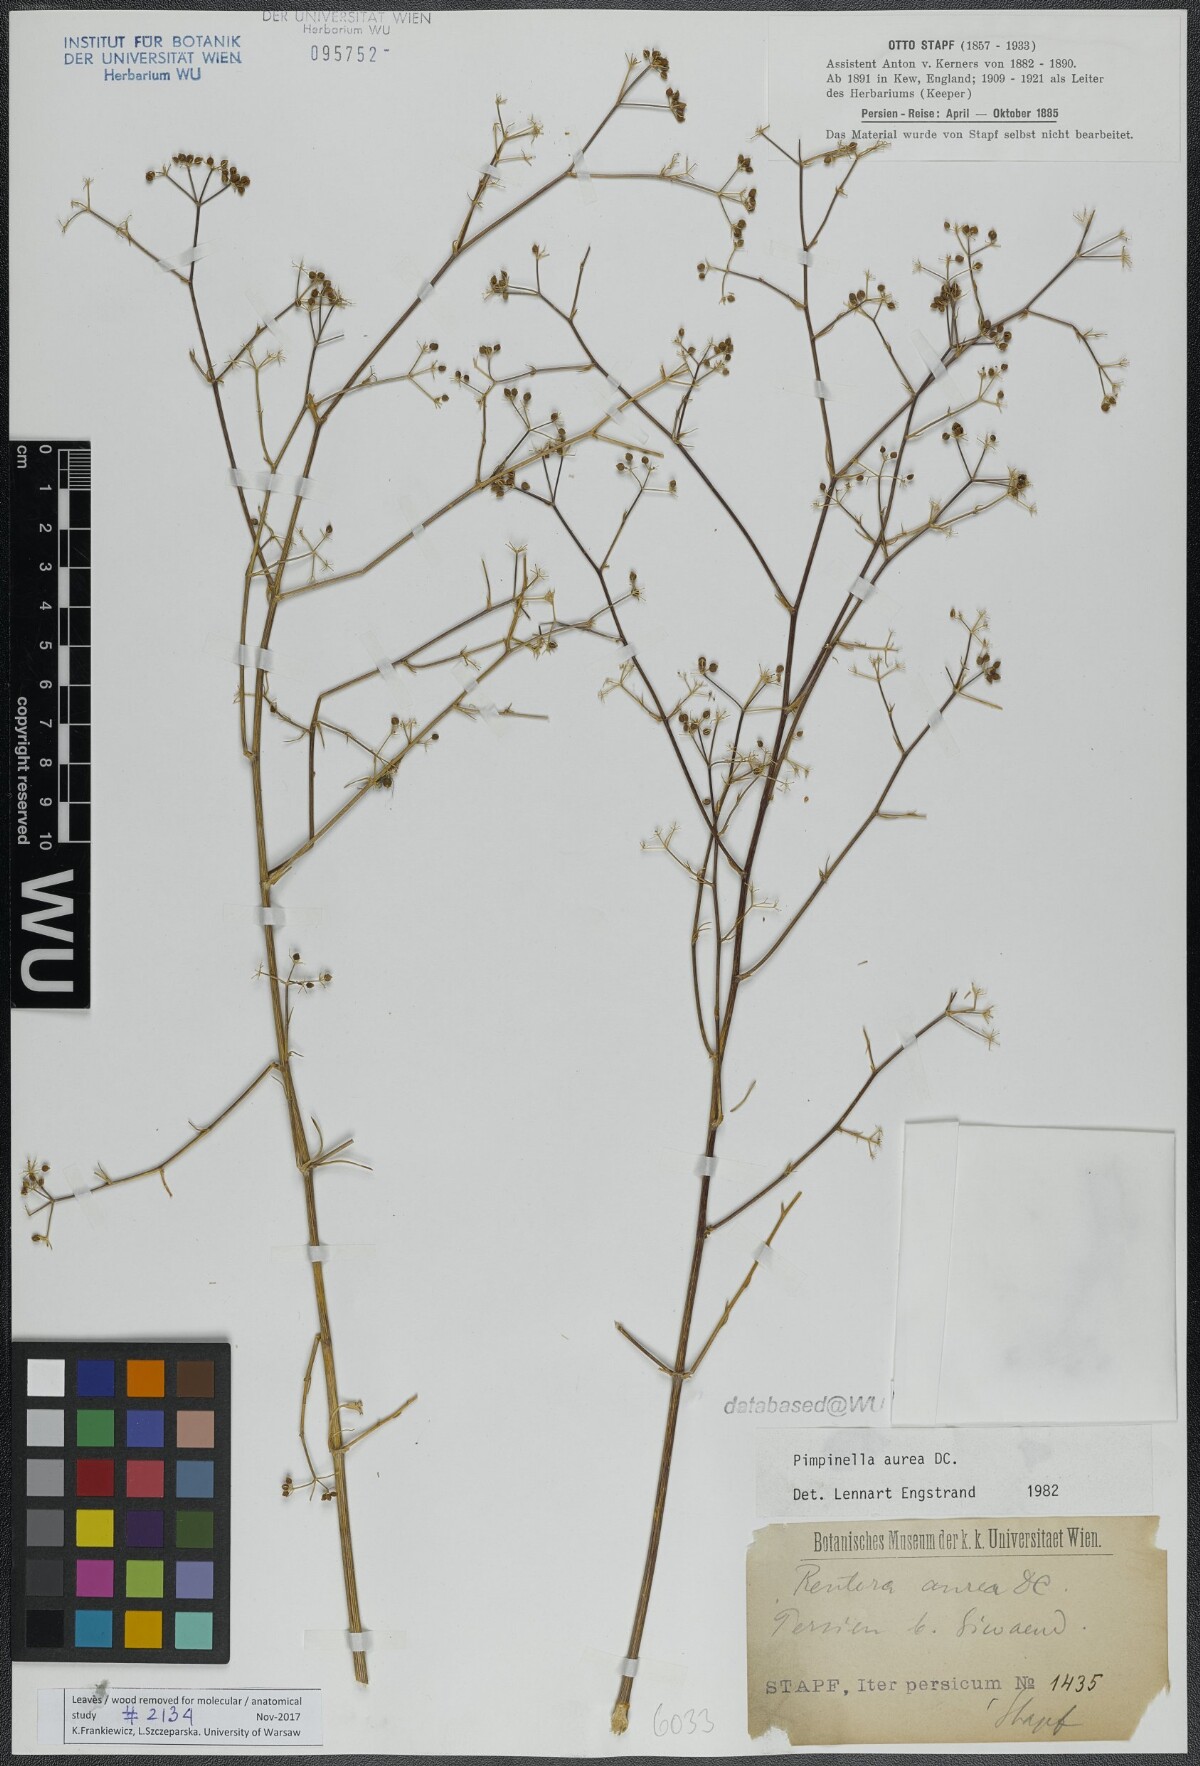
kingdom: Plantae
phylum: Tracheophyta
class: Magnoliopsida
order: Apiales
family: Apiaceae
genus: Pimpinella
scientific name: Pimpinella aurea
